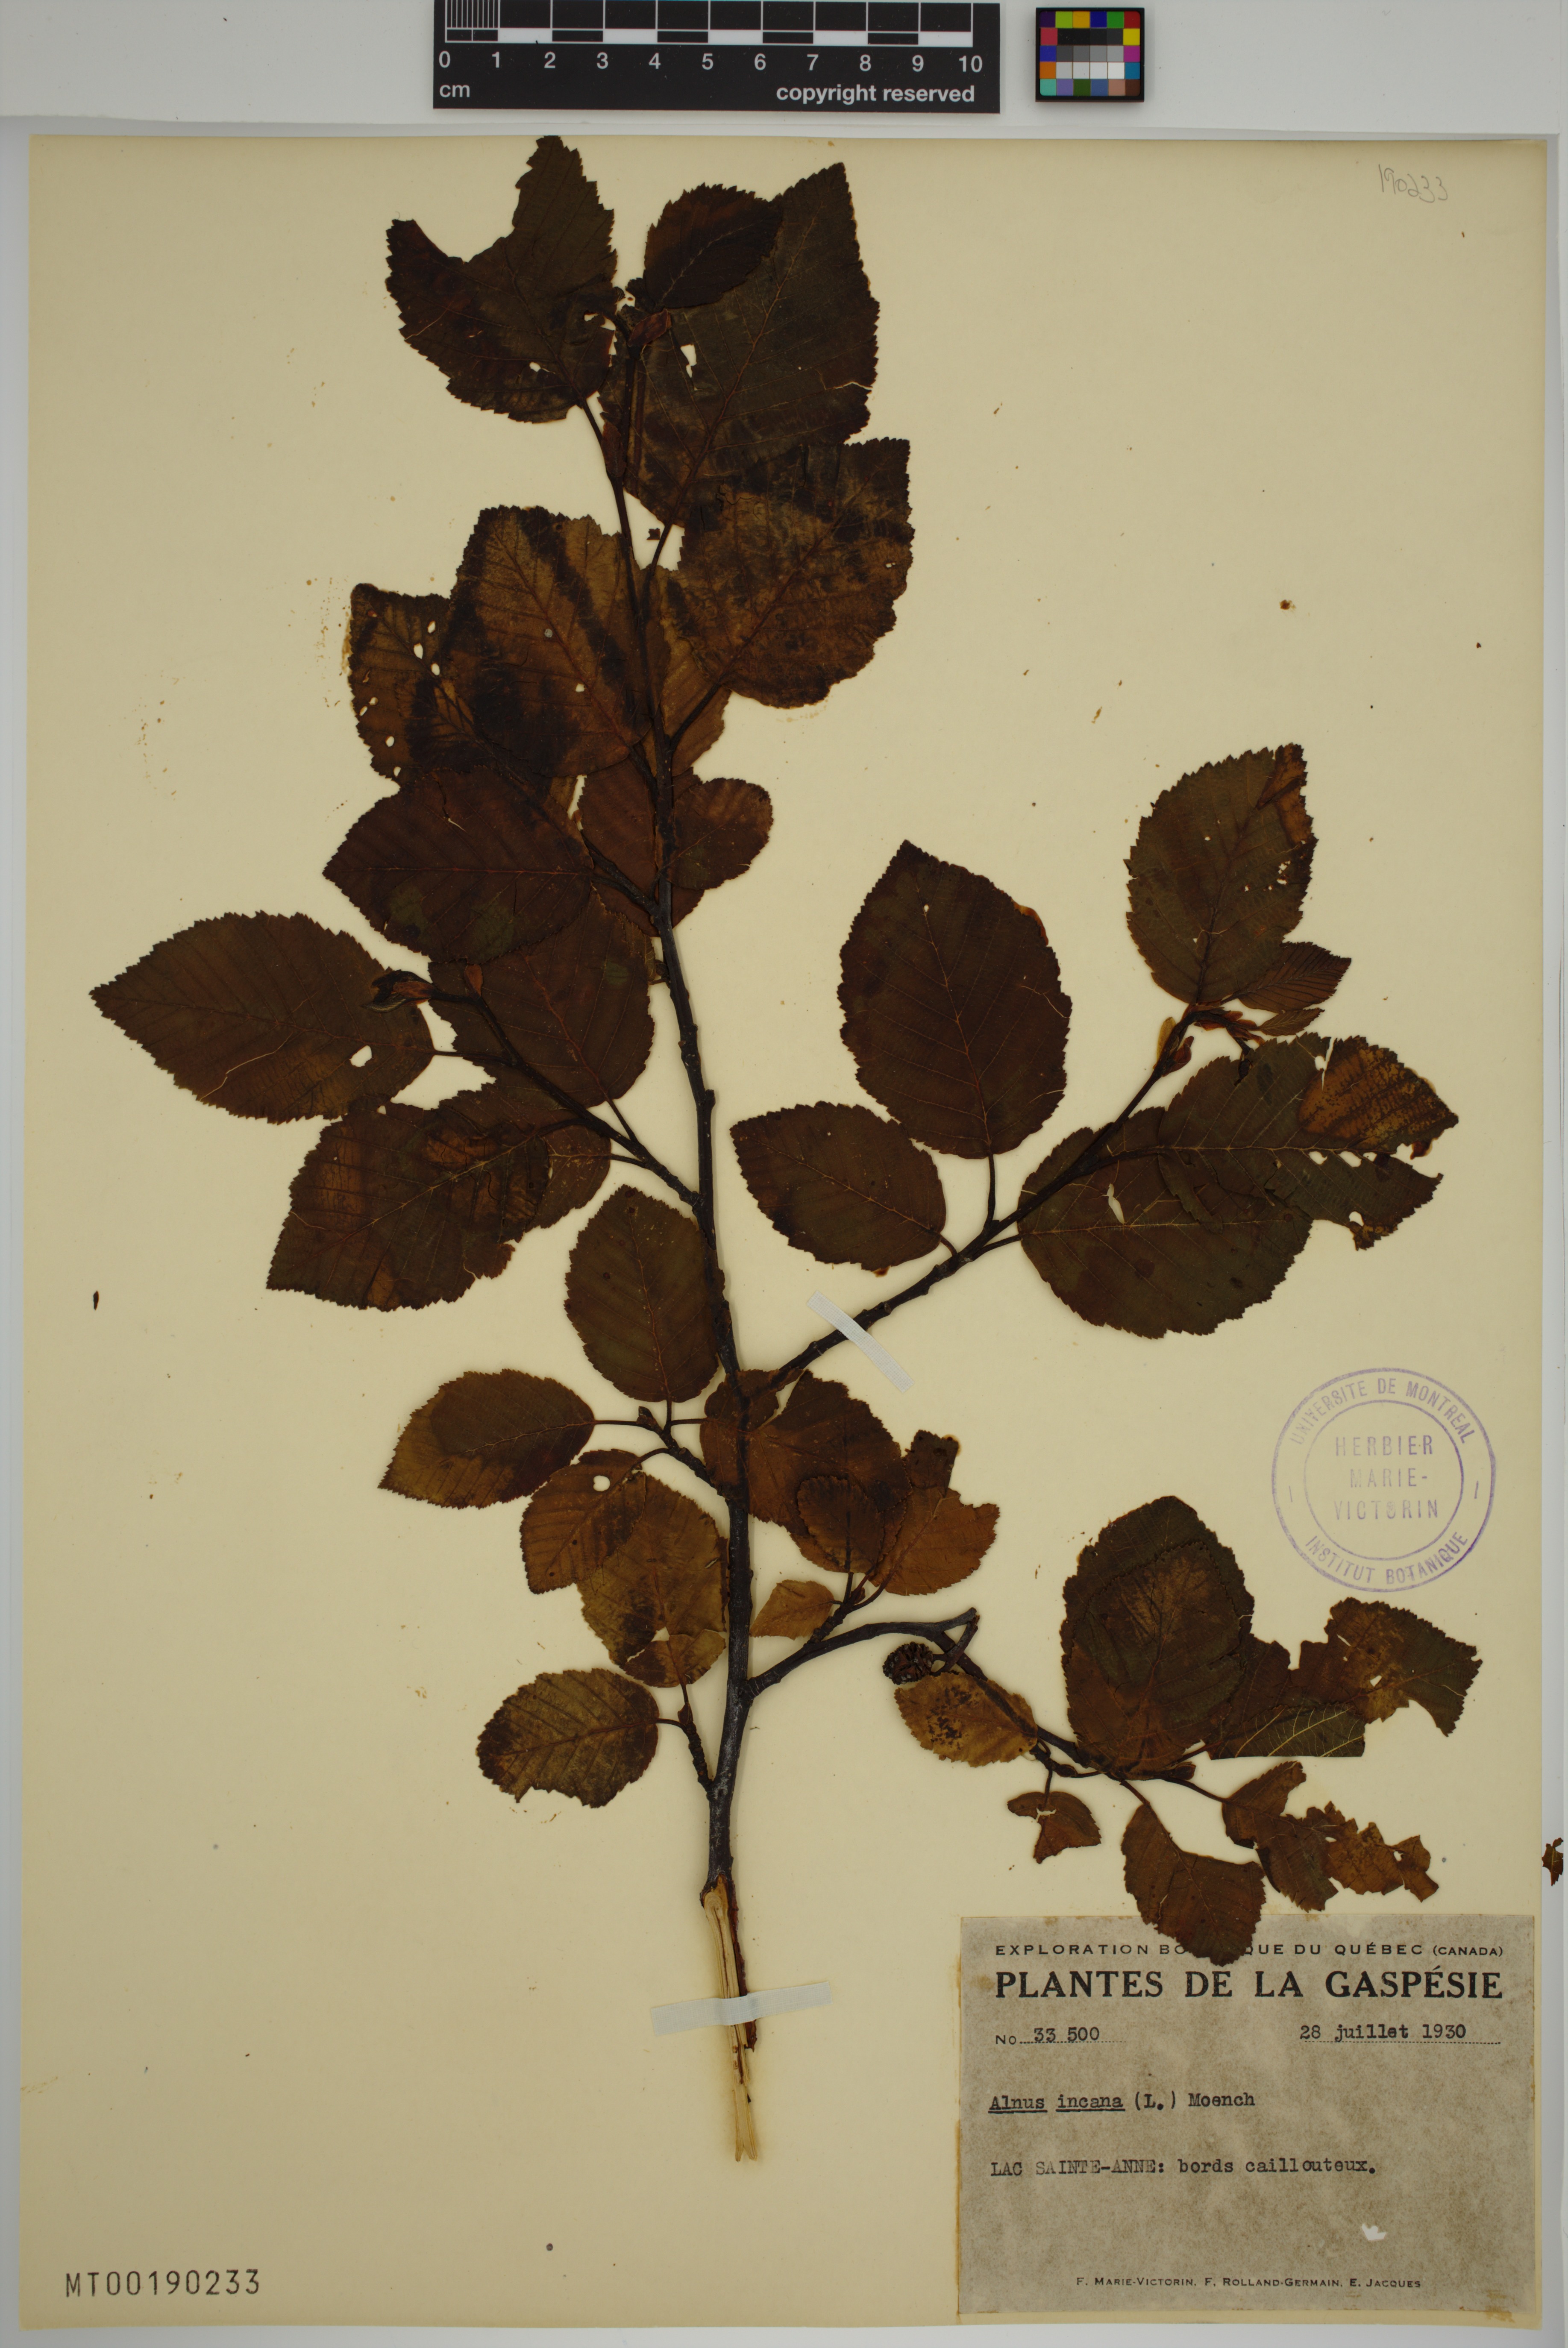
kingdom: Plantae
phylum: Tracheophyta
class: Magnoliopsida
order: Fagales
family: Betulaceae
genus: Alnus
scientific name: Alnus incana
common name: Grey alder
